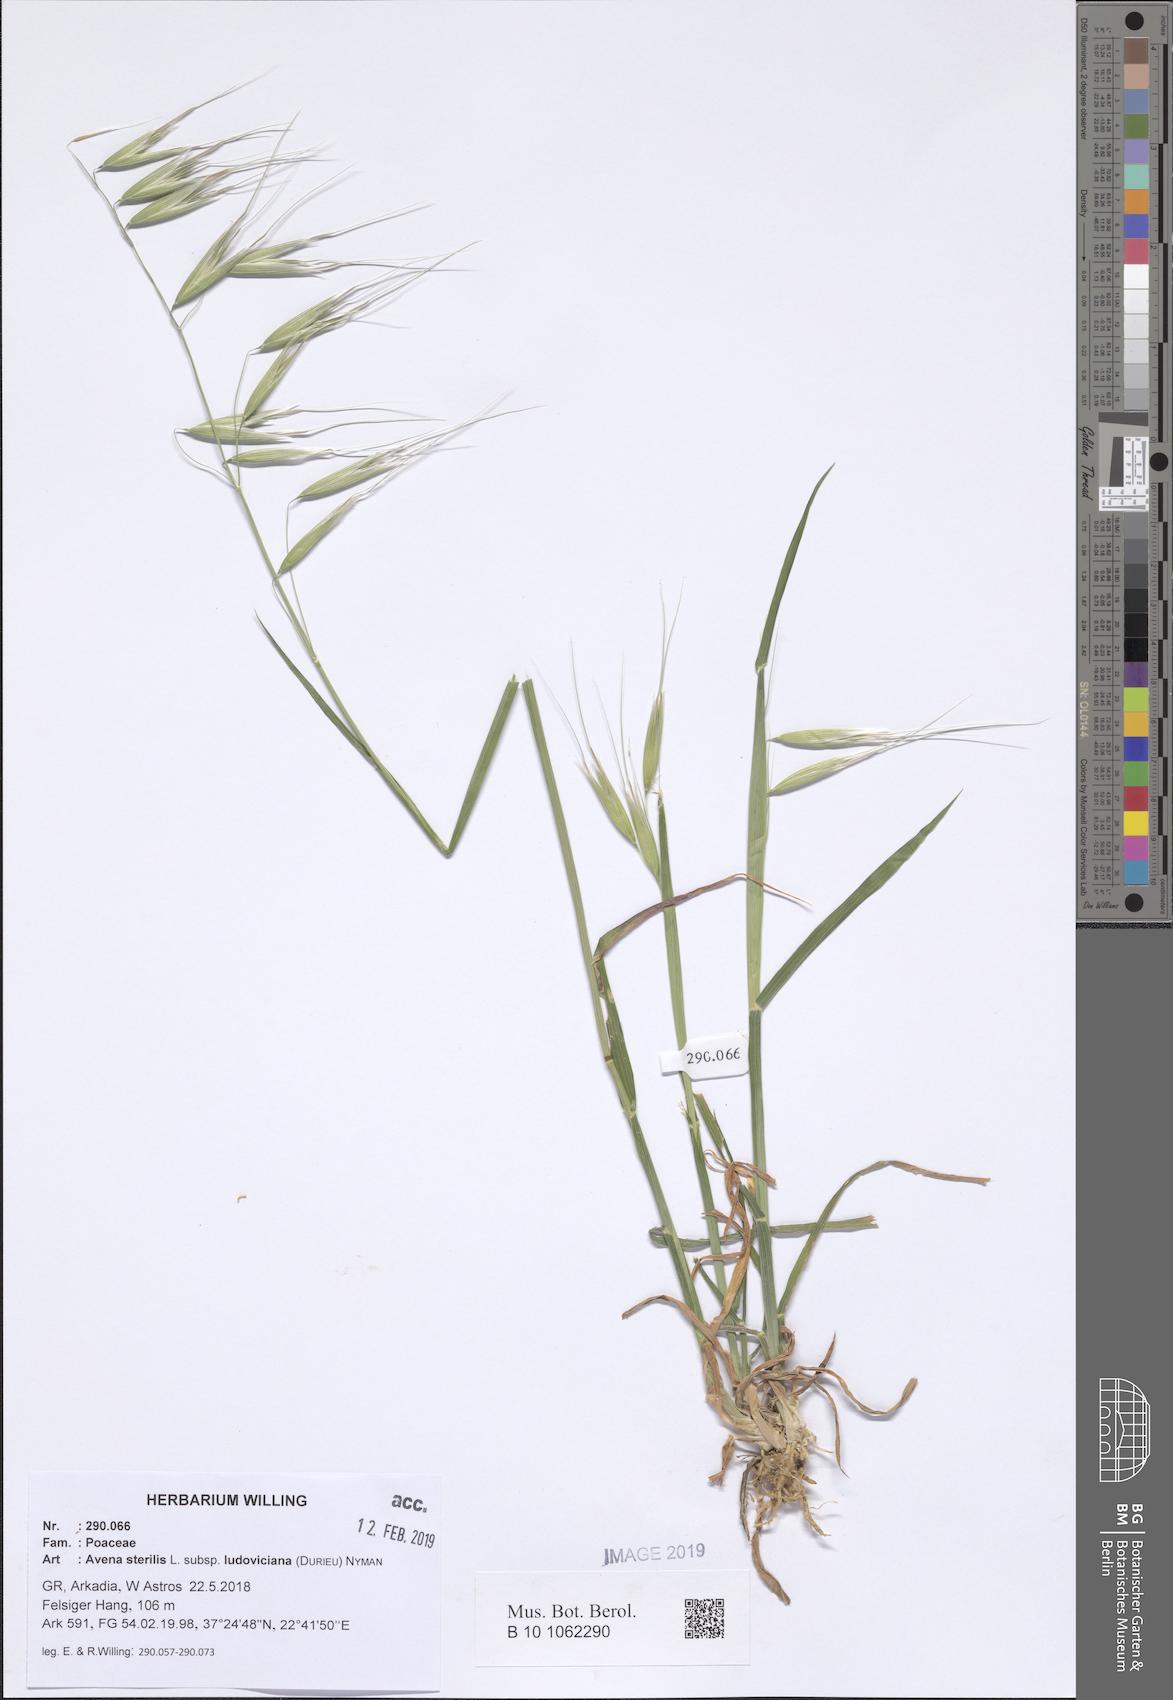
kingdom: Plantae
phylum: Tracheophyta
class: Liliopsida
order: Poales
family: Poaceae
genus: Avena
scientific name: Avena sterilis
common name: Animated oat
